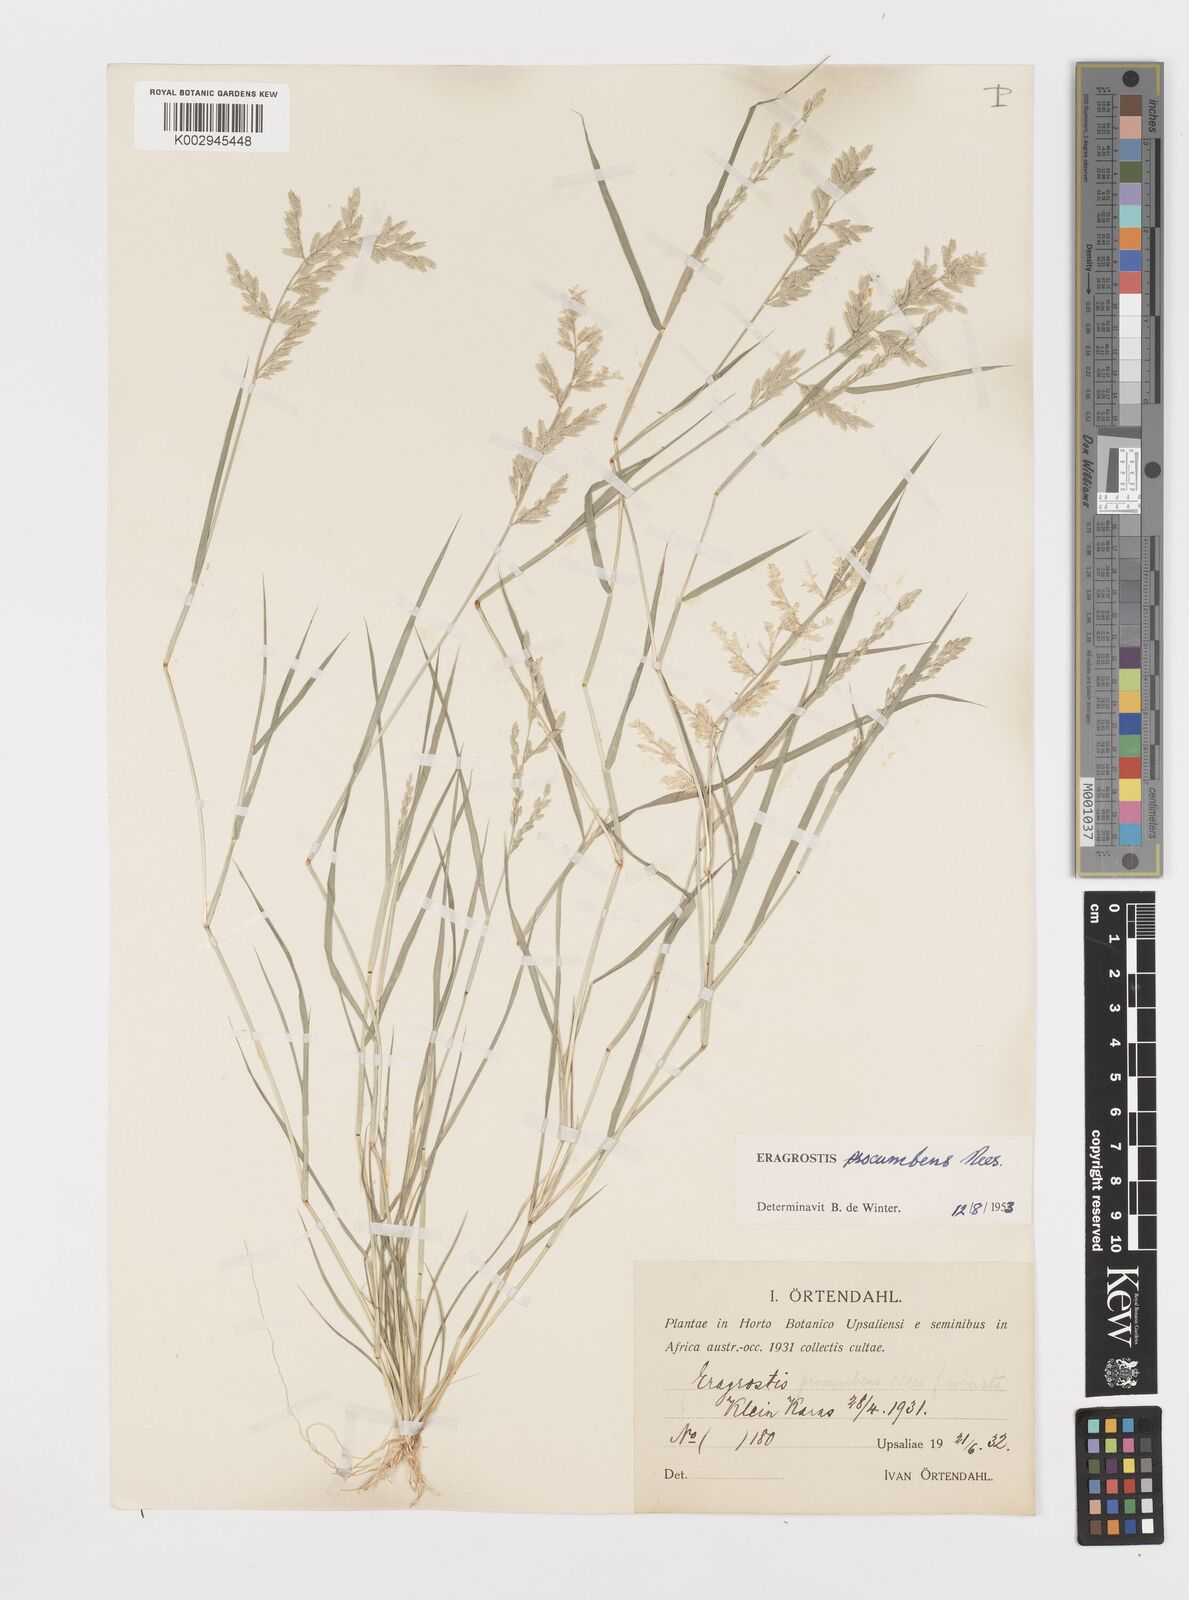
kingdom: Plantae
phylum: Tracheophyta
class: Liliopsida
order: Poales
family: Poaceae
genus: Eragrostis
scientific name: Eragrostis procumbens
